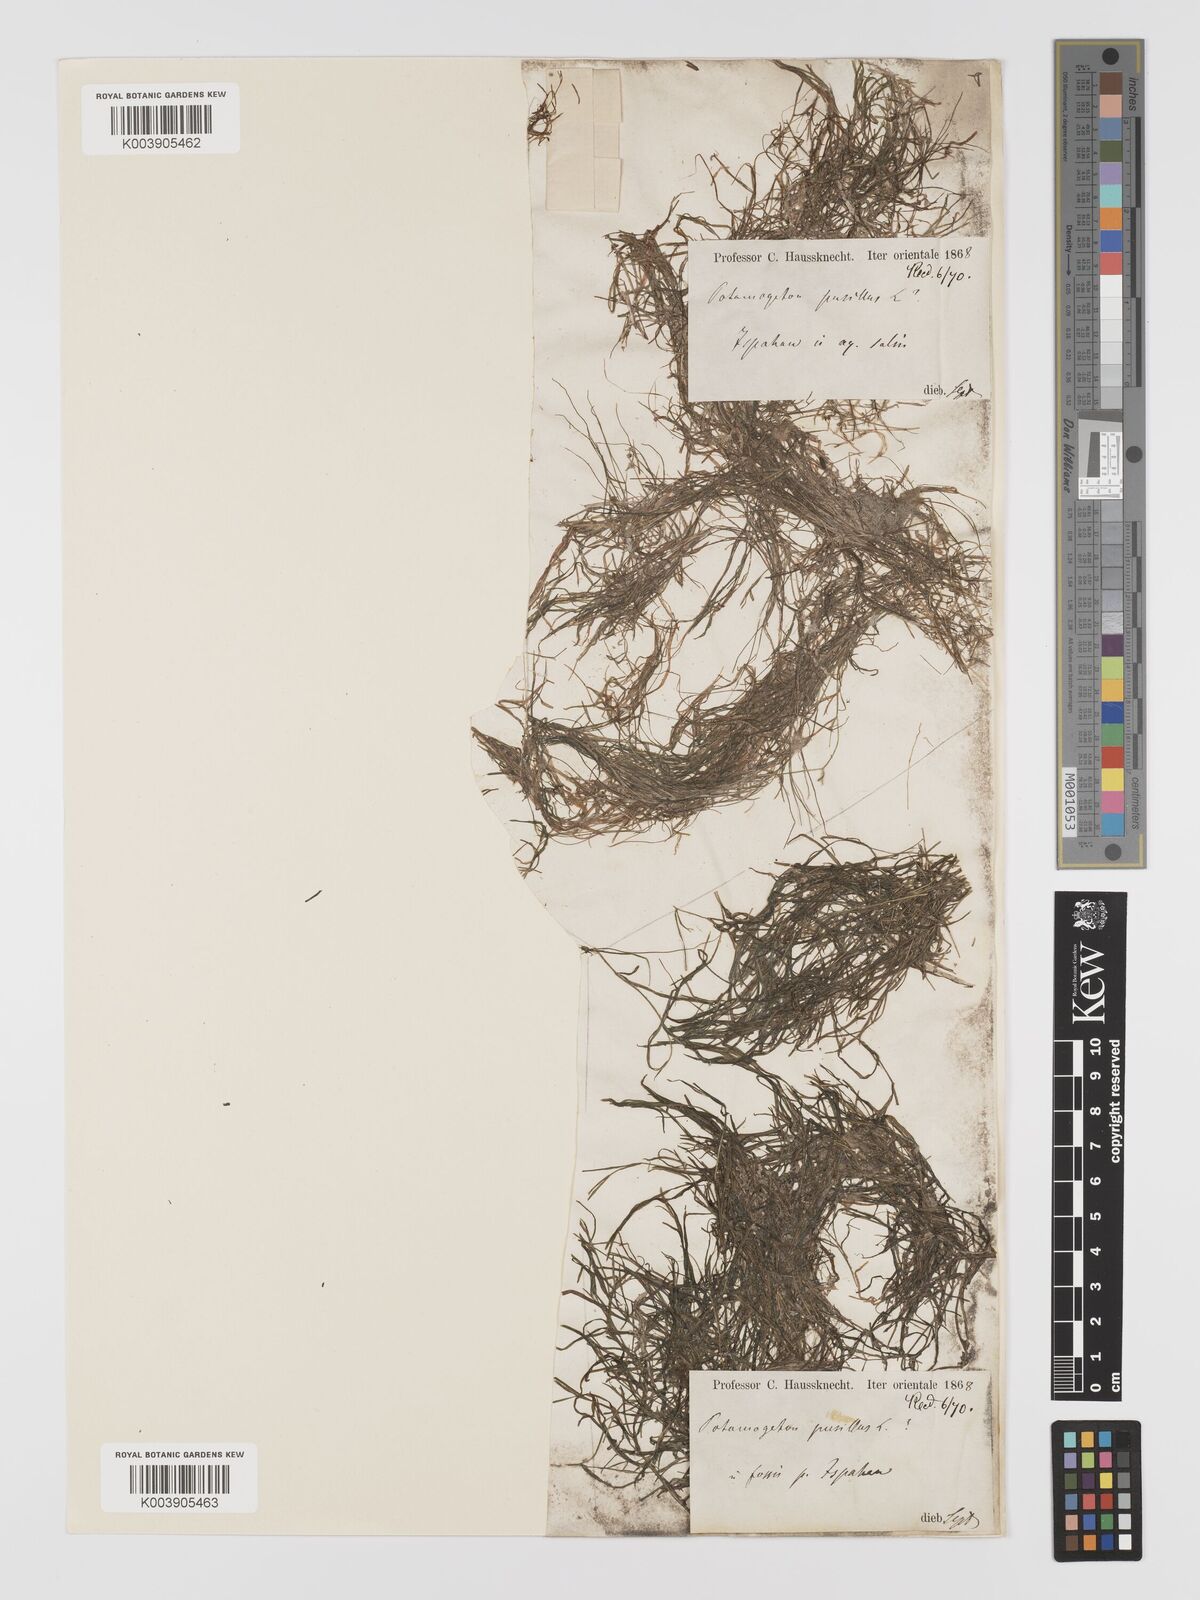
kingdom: Plantae
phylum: Tracheophyta
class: Liliopsida
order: Alismatales
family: Potamogetonaceae
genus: Potamogeton
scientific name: Potamogeton
